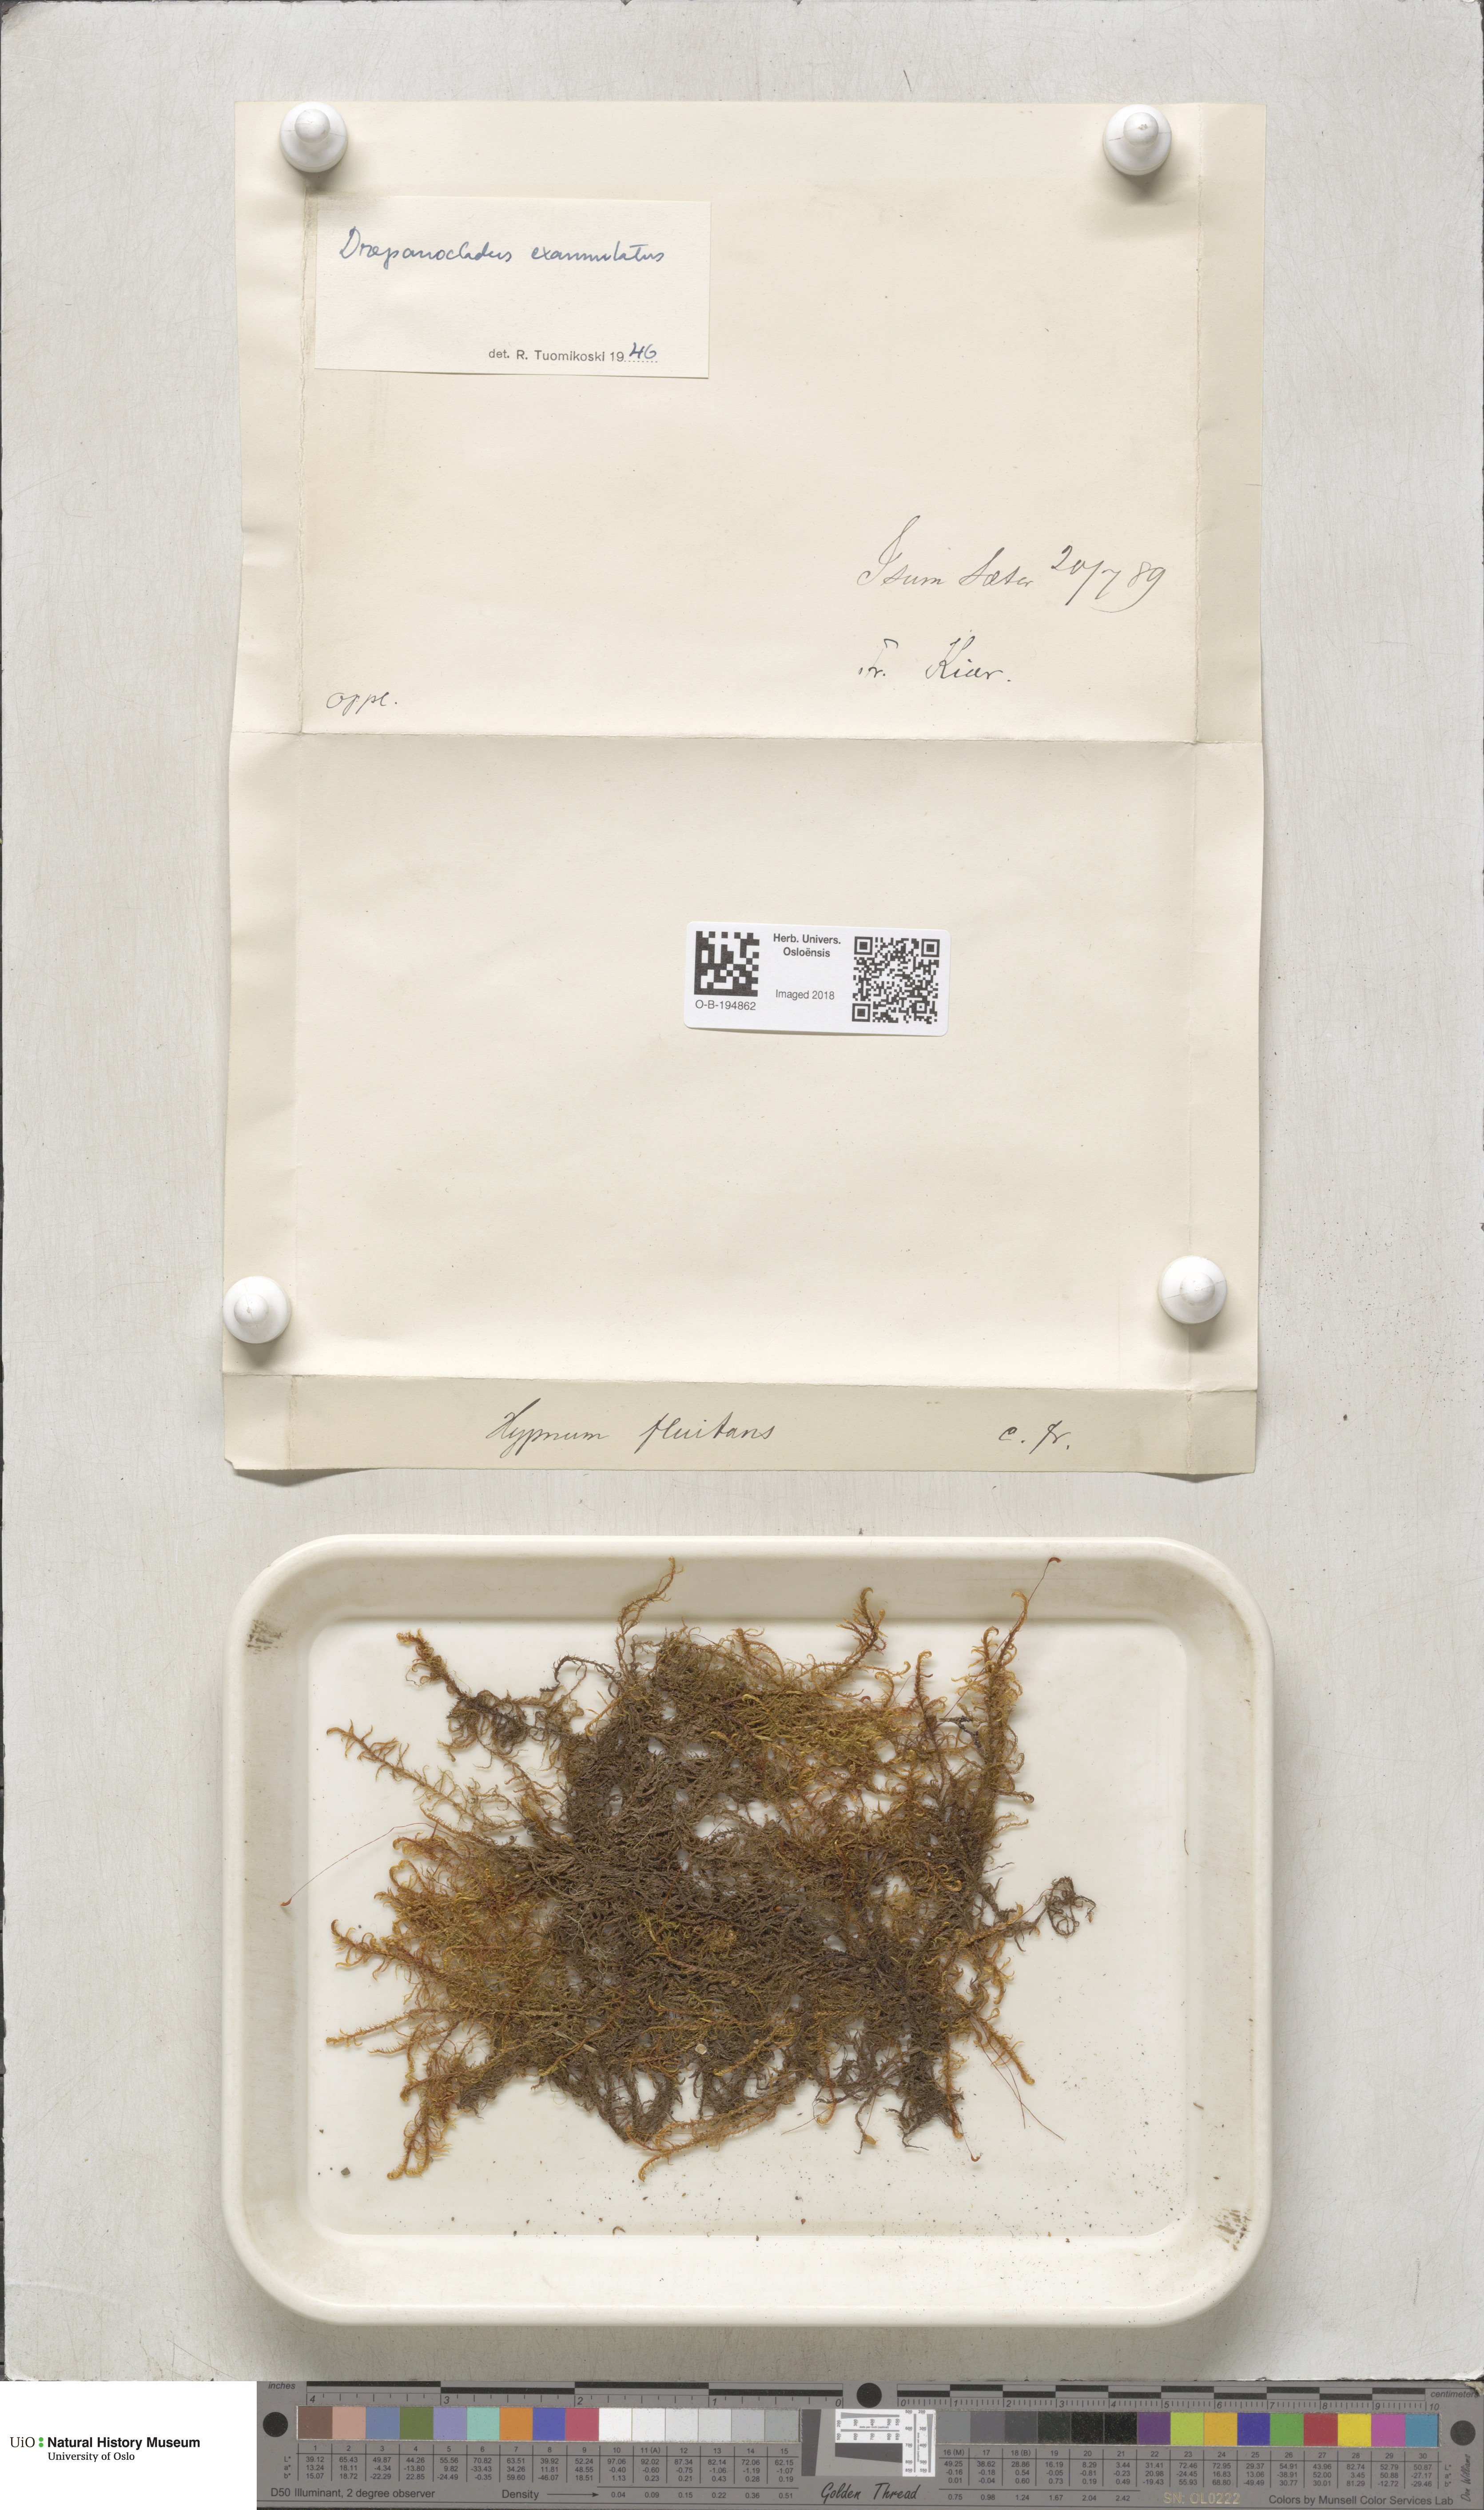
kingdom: Plantae
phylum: Bryophyta
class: Bryopsida
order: Hypnales
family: Calliergonaceae
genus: Sarmentypnum
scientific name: Sarmentypnum exannulatum
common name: Ringless spoon moss
